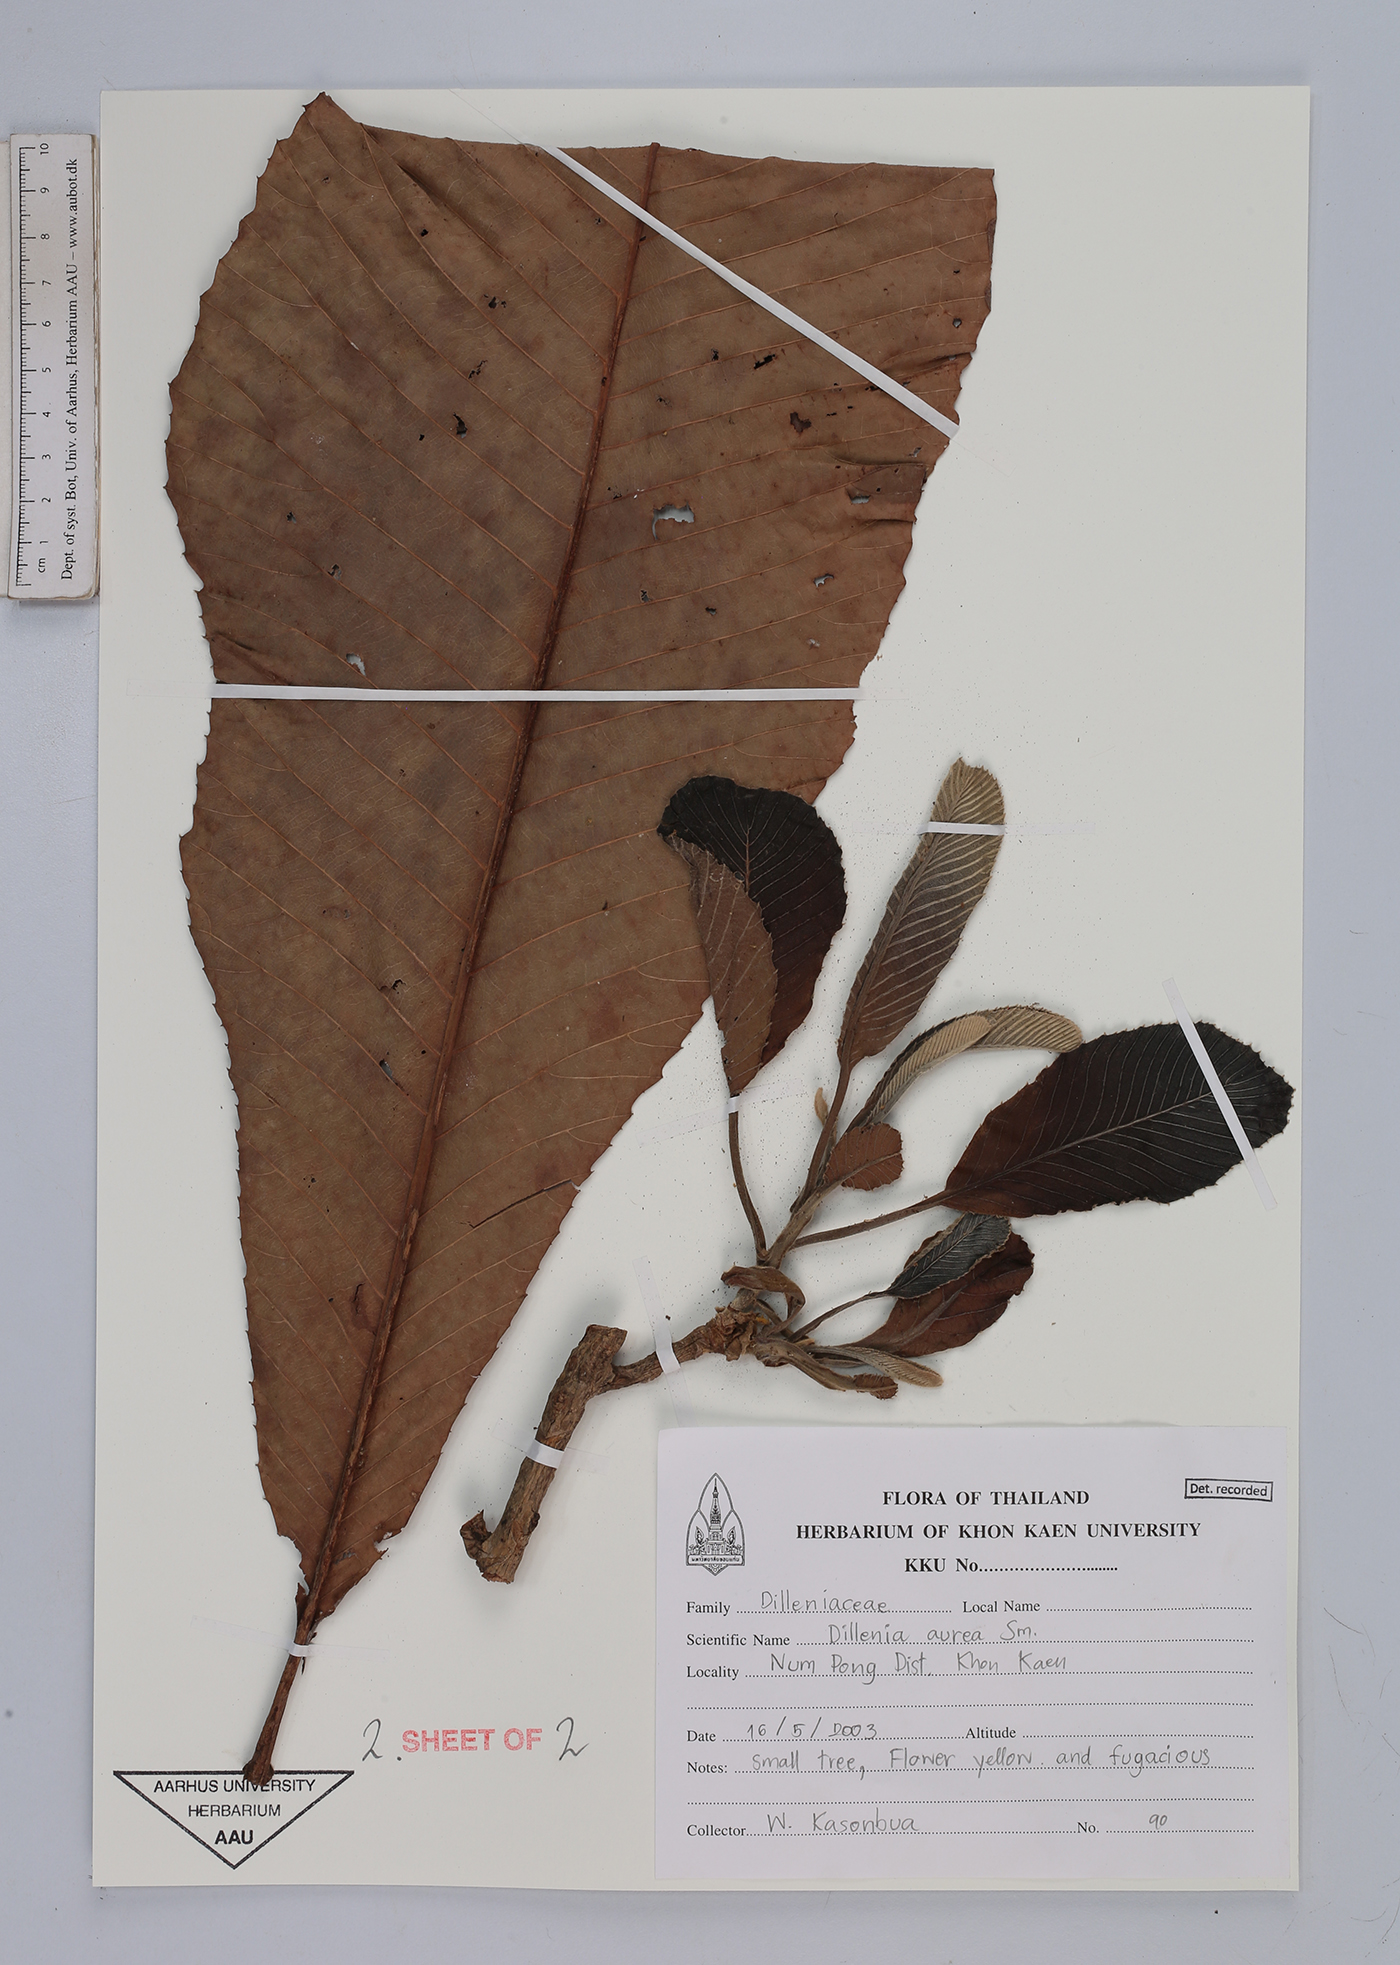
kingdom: Plantae
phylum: Tracheophyta
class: Magnoliopsida
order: Dilleniales
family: Dilleniaceae
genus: Dillenia
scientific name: Dillenia aurea
